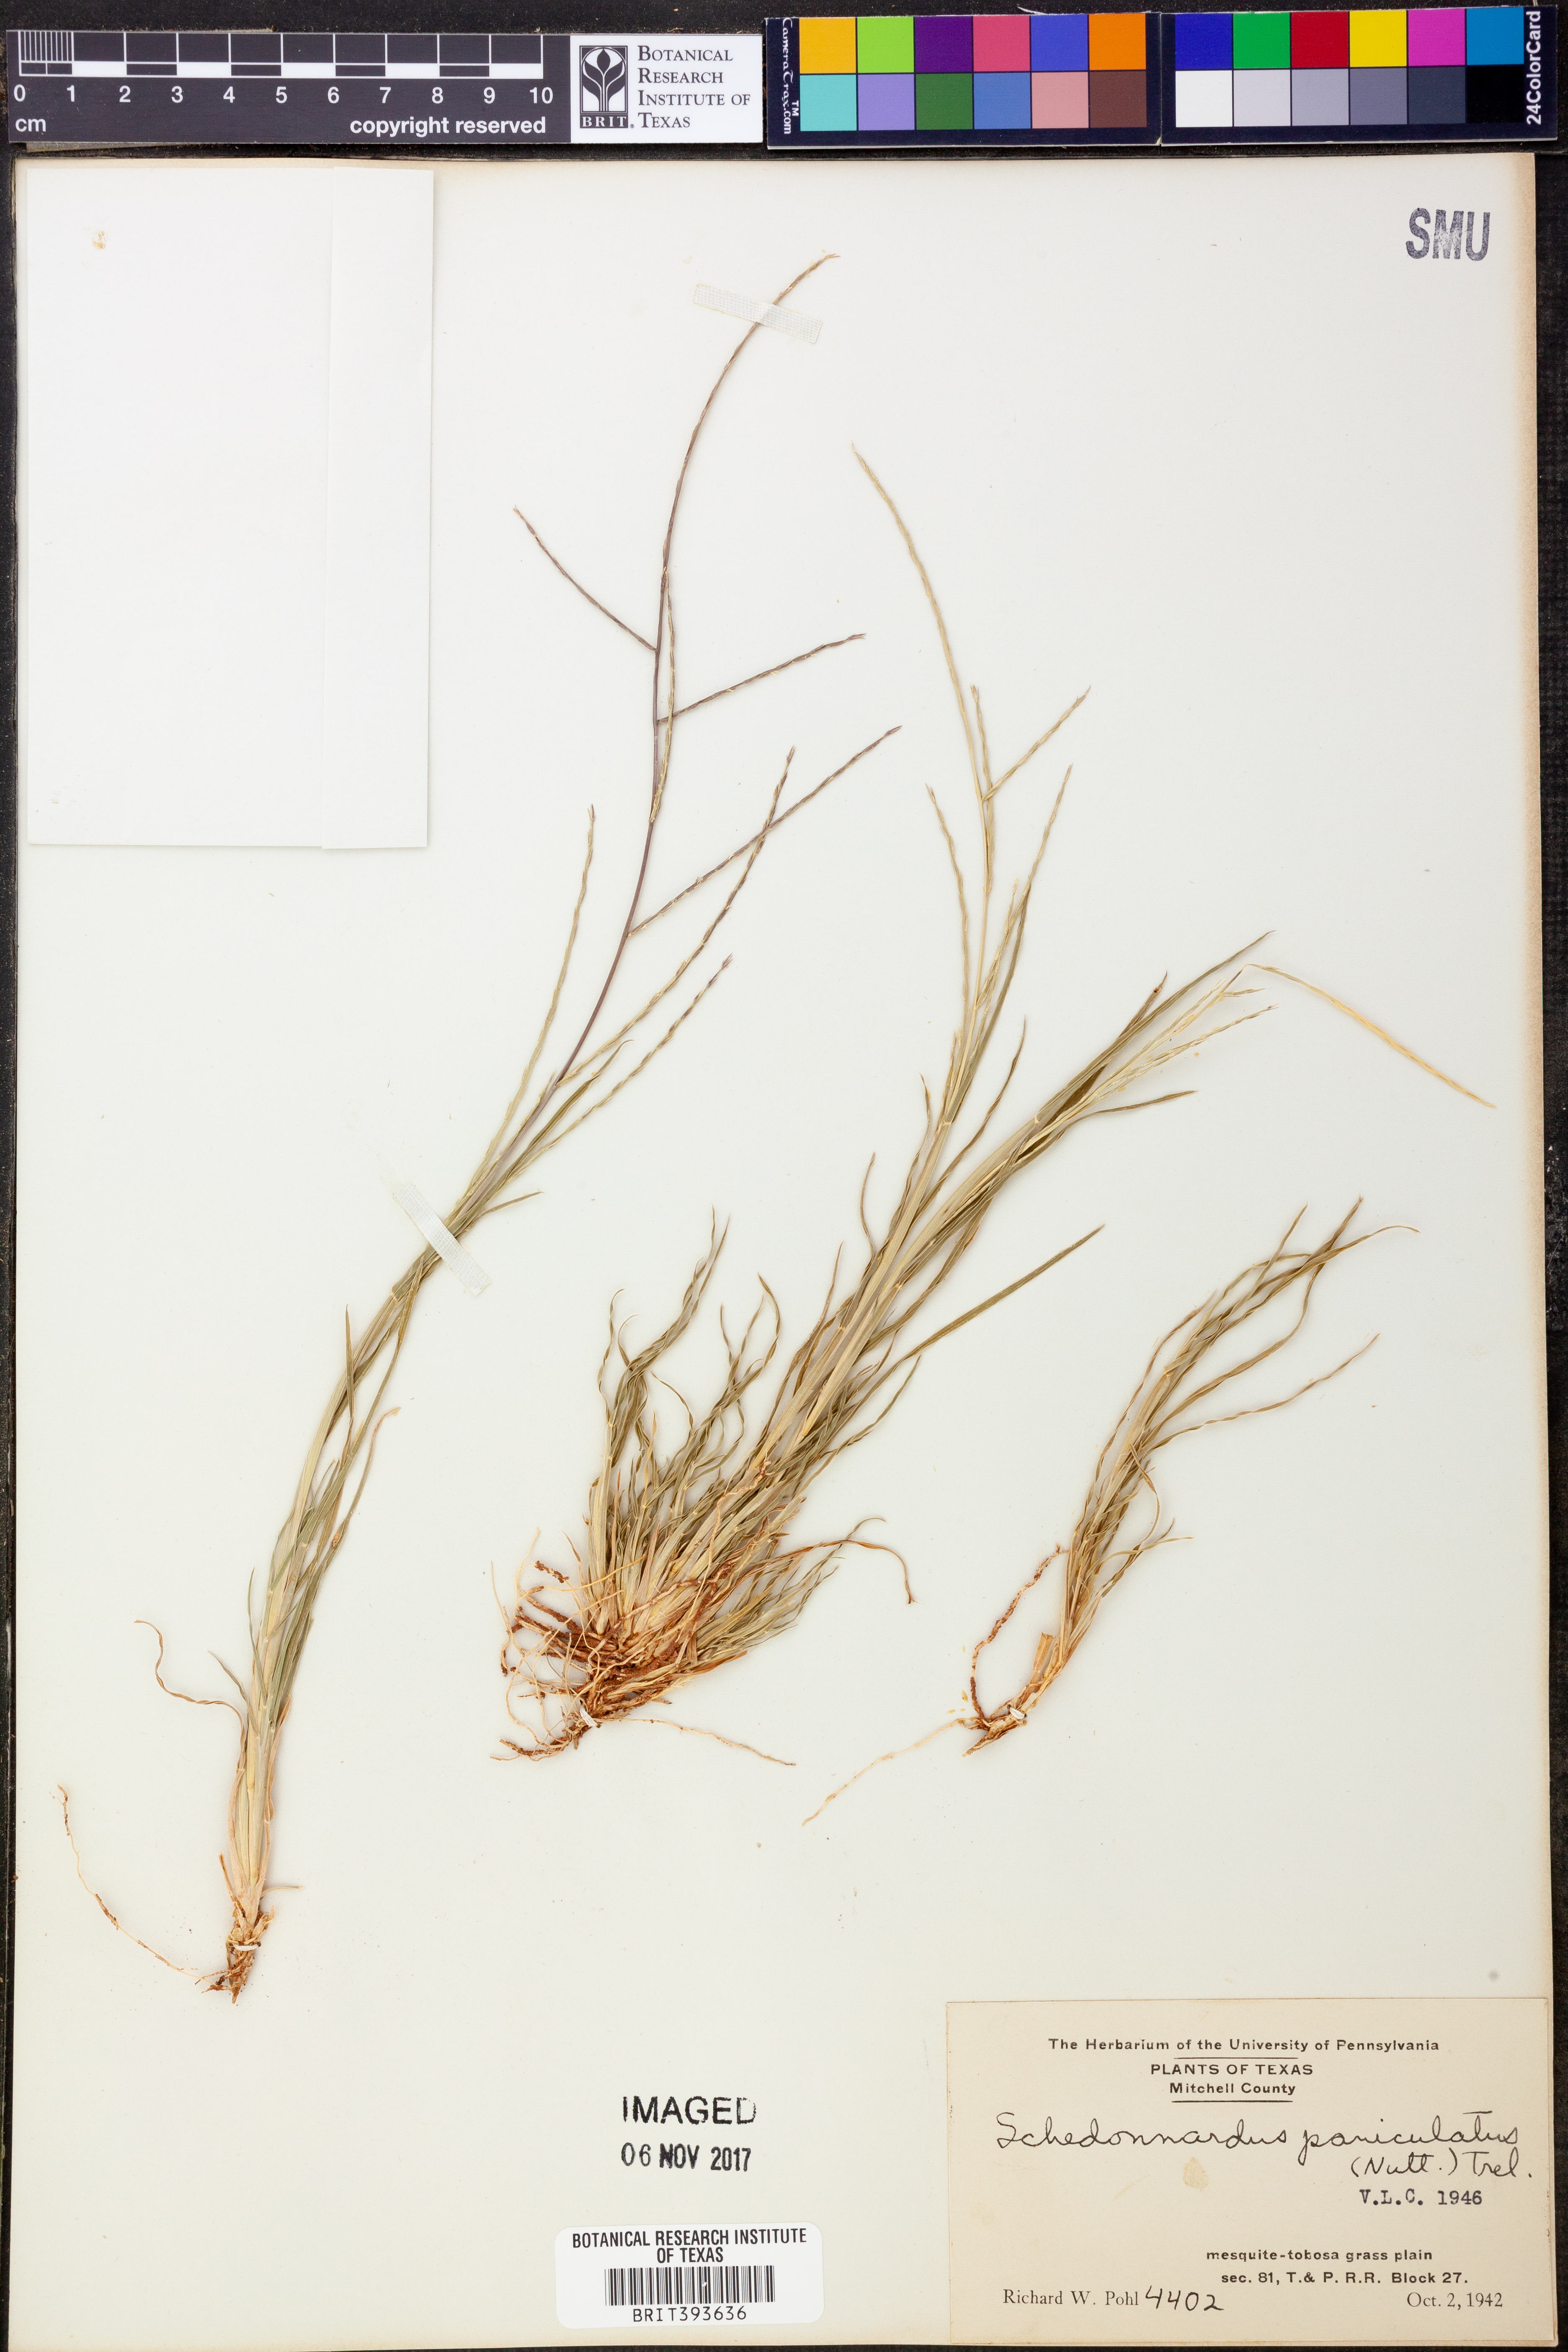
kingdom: Plantae
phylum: Tracheophyta
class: Liliopsida
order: Poales
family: Poaceae
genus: Muhlenbergia
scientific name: Muhlenbergia paniculata
